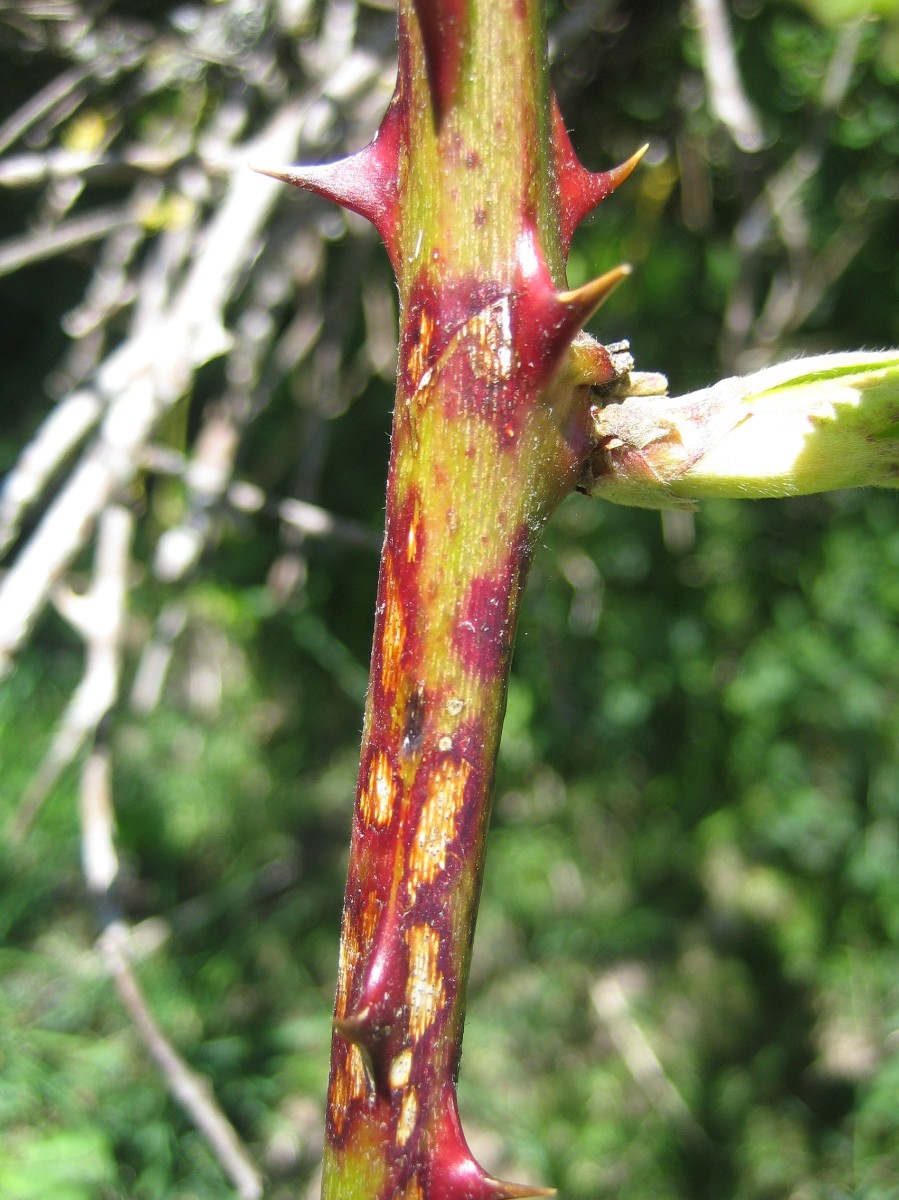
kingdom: Fungi
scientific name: Fungi
